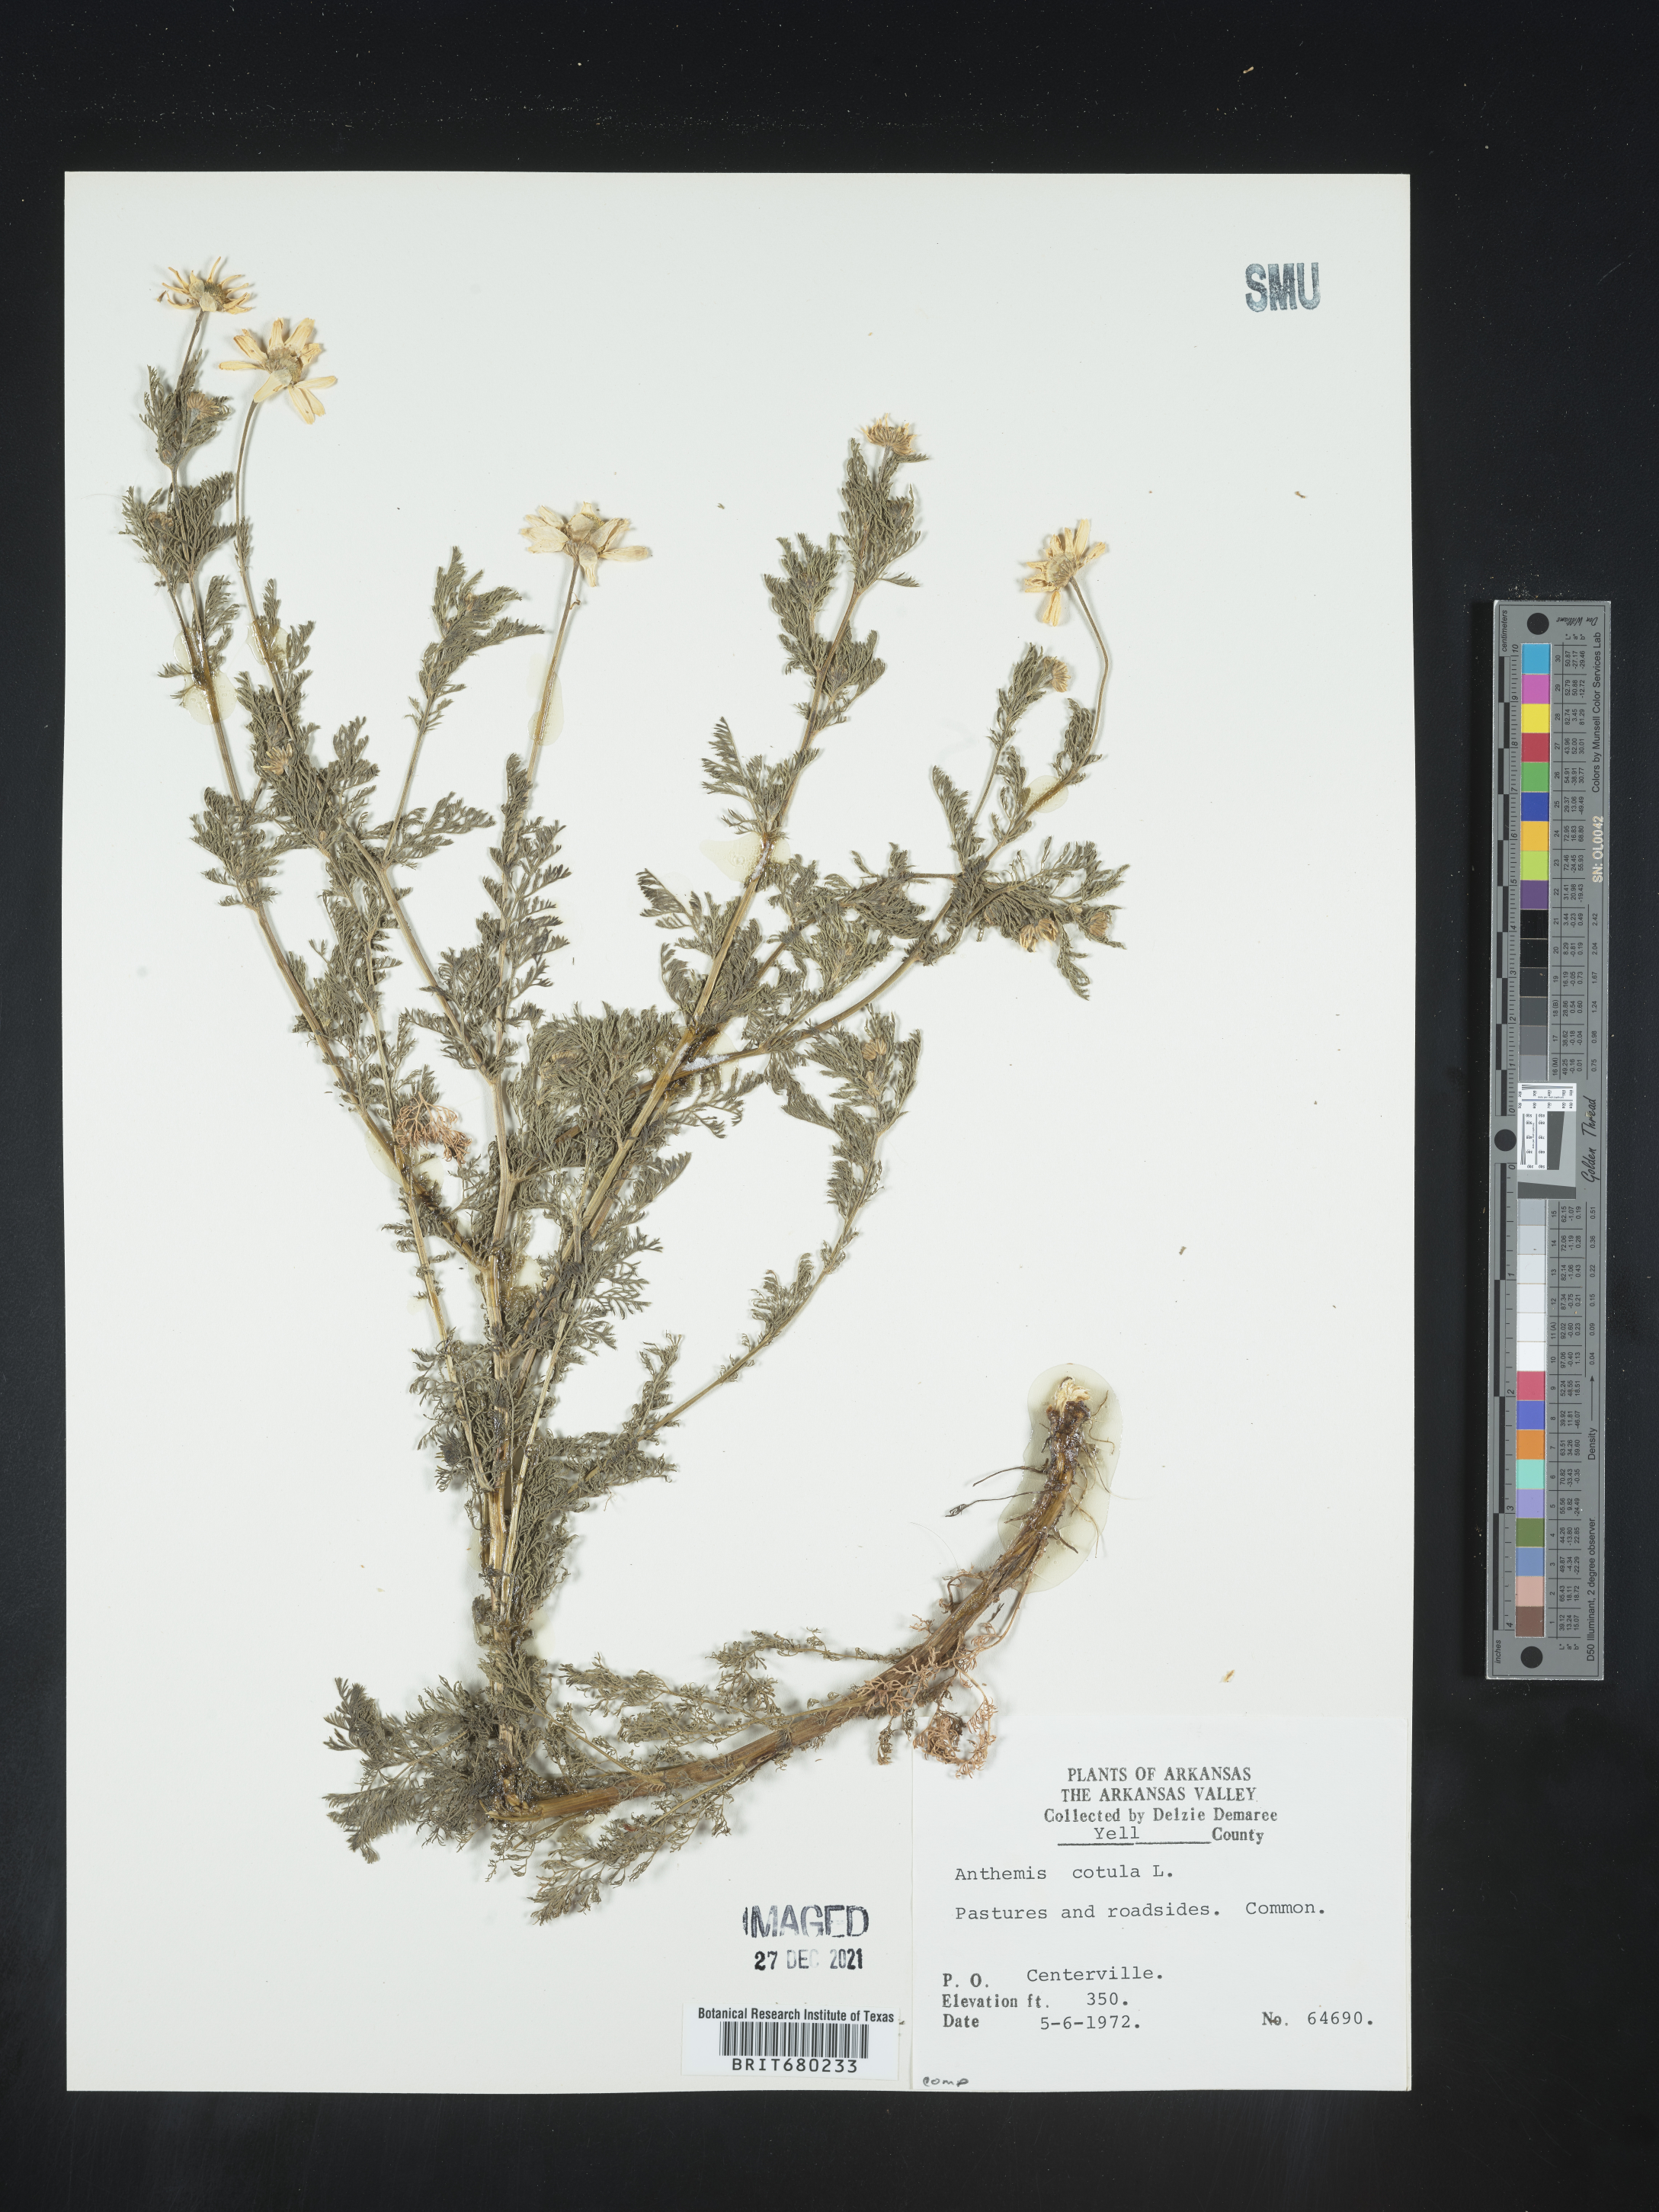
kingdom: Plantae
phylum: Tracheophyta
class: Magnoliopsida
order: Asterales
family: Asteraceae
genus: Anthemis
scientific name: Anthemis cotula
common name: Stinking chamomile
